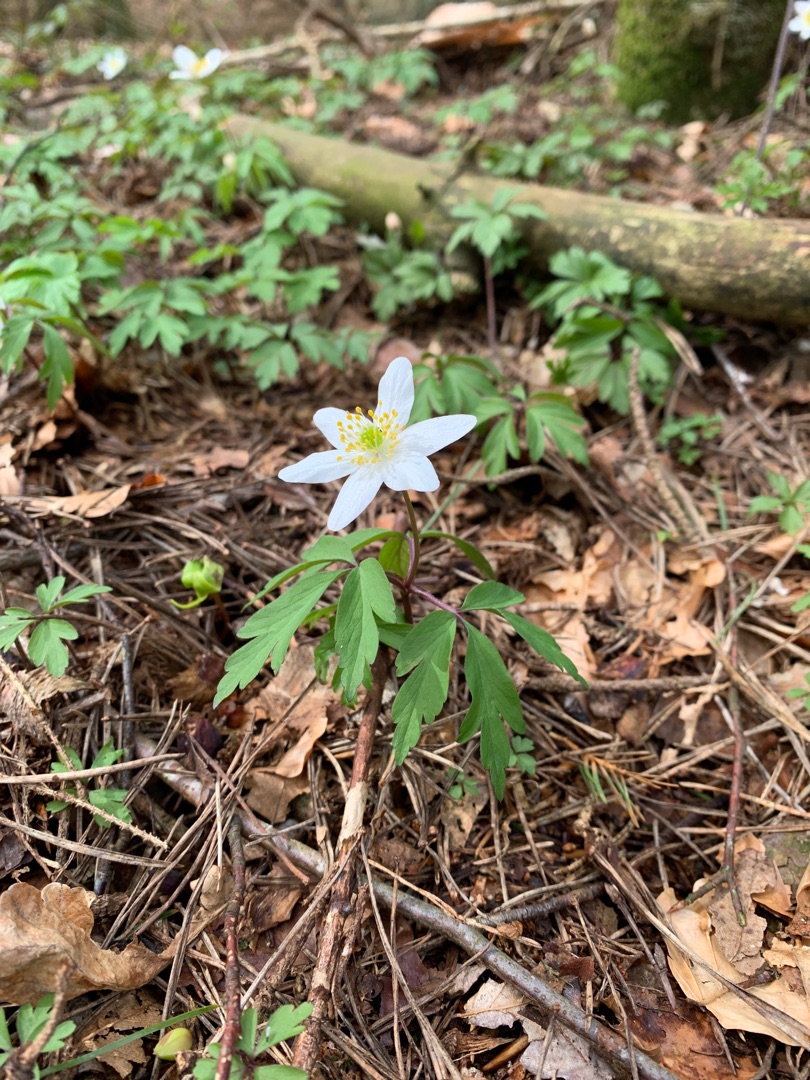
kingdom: Plantae
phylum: Tracheophyta
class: Magnoliopsida
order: Ranunculales
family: Ranunculaceae
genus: Anemone
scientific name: Anemone nemorosa
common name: Hvid anemone
